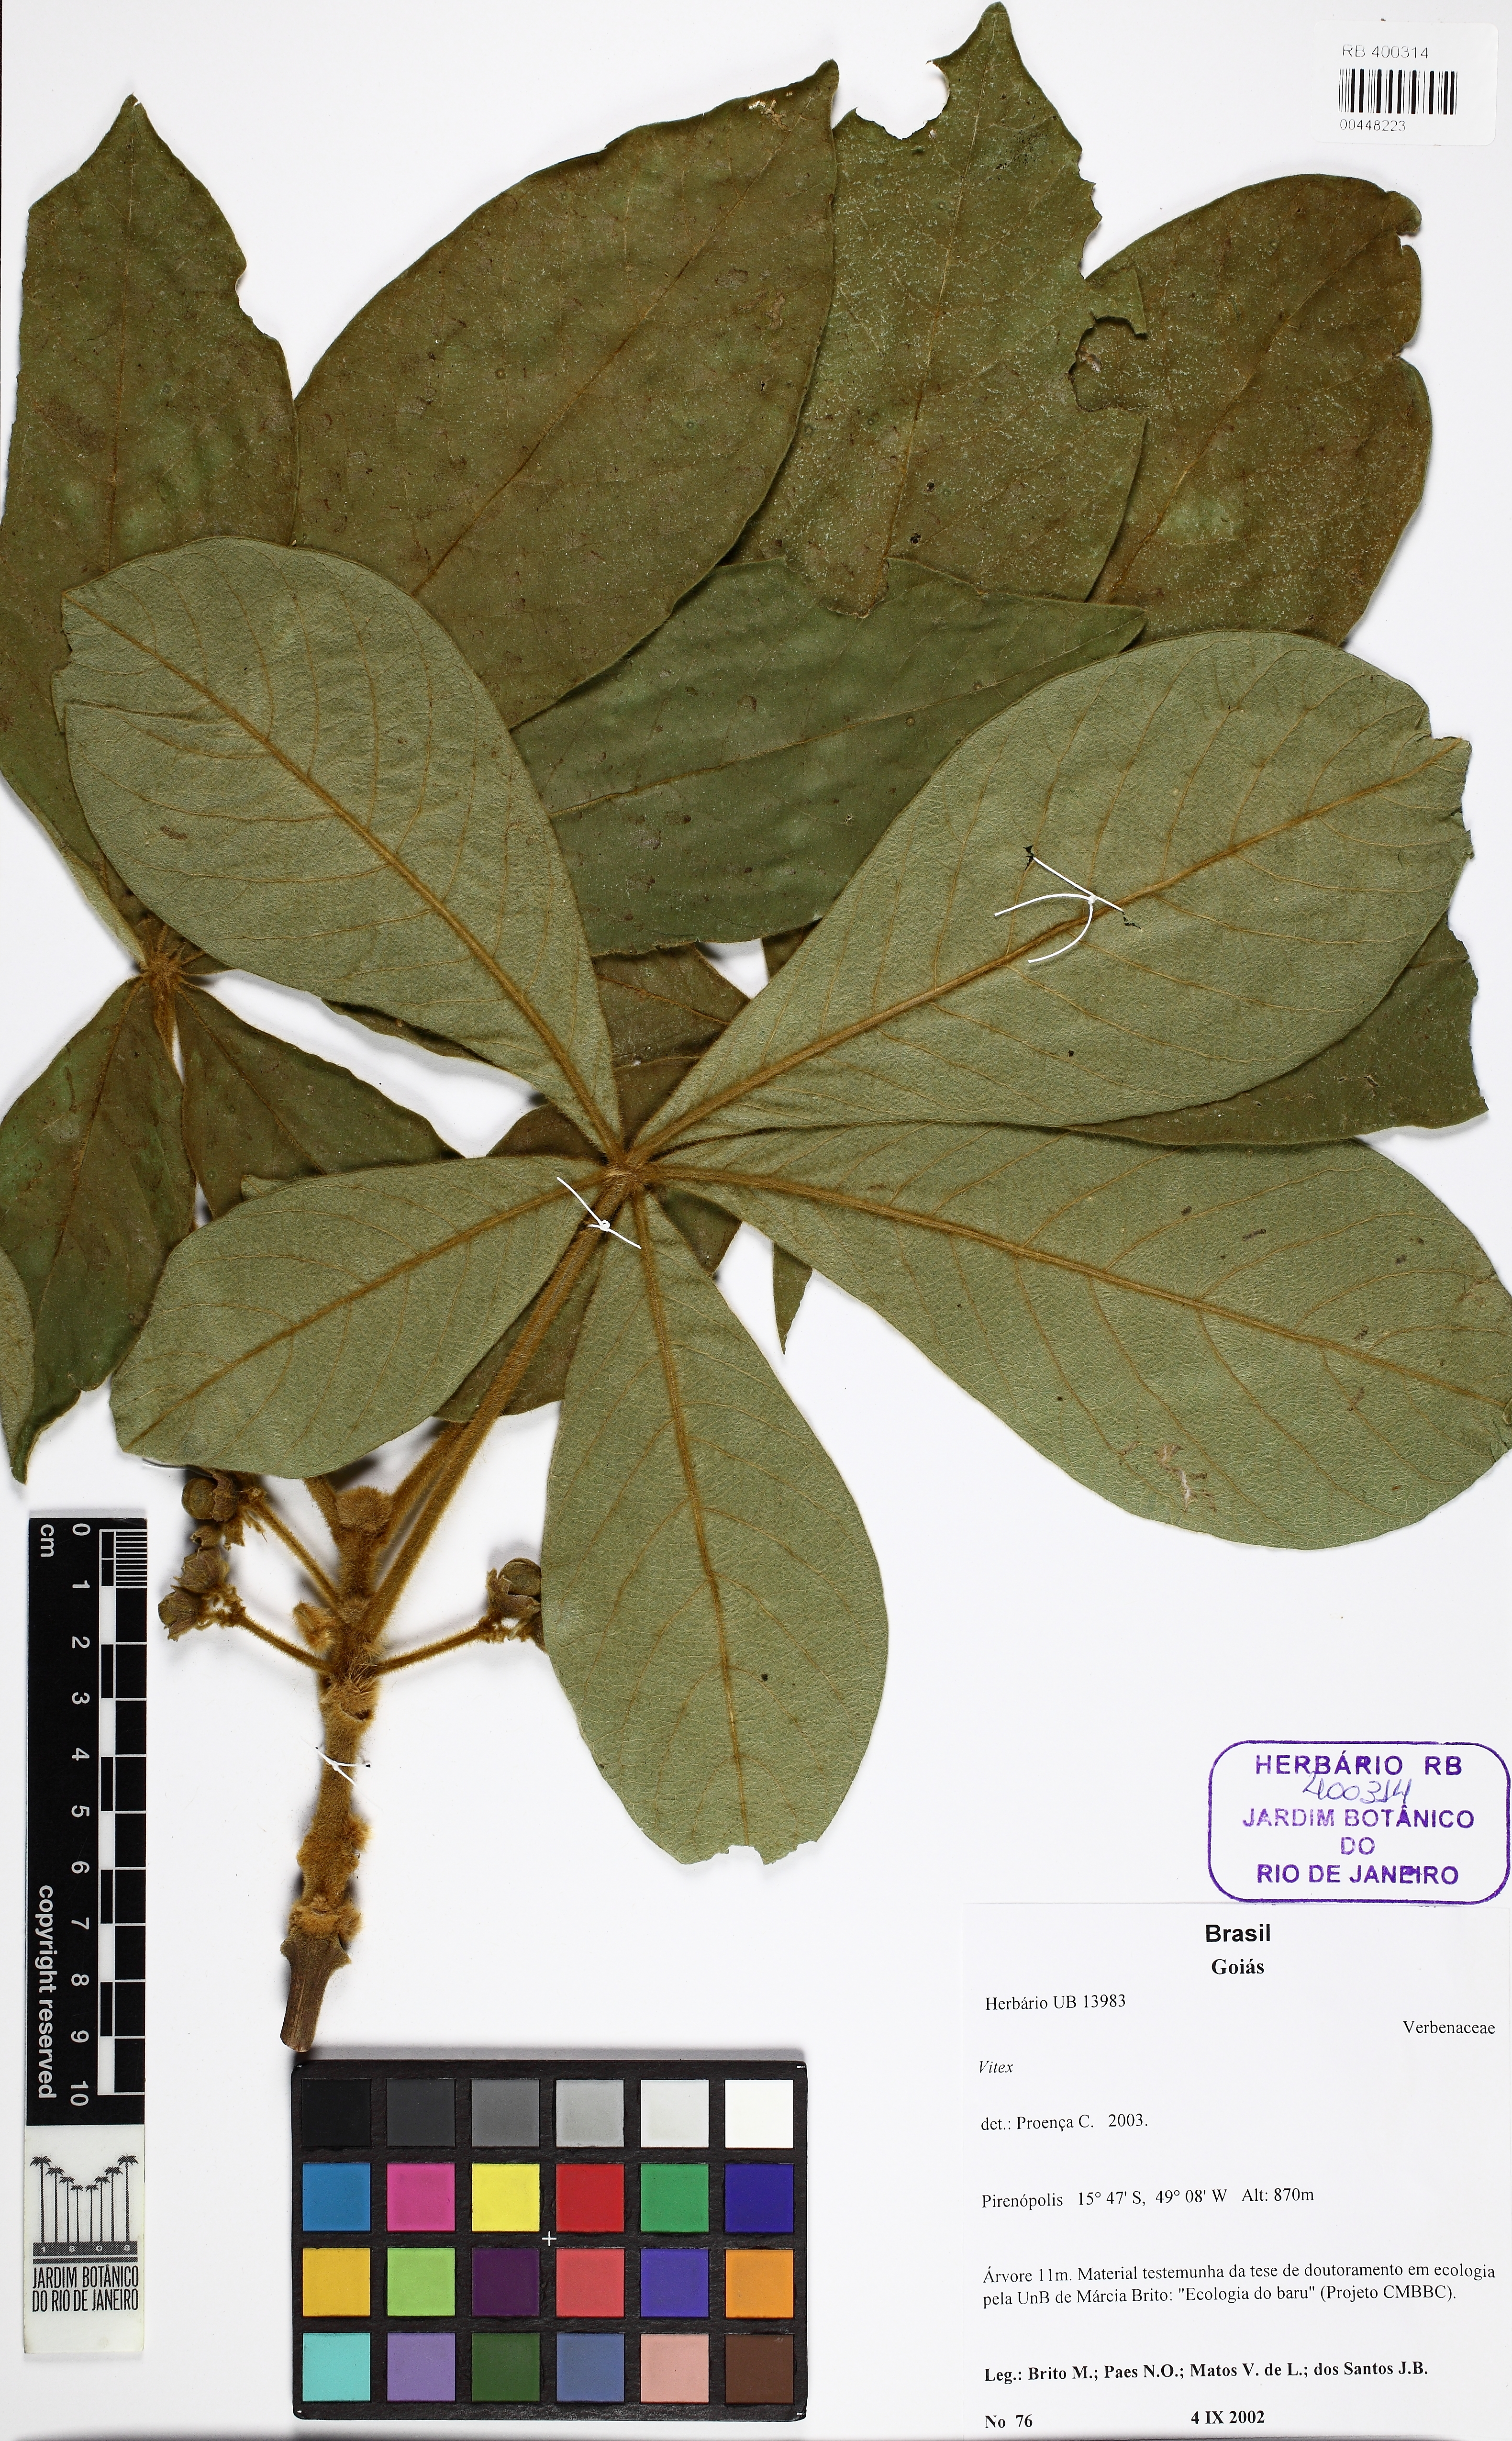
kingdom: Plantae
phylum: Tracheophyta
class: Magnoliopsida
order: Lamiales
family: Lamiaceae
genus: Vitex
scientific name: Vitex
